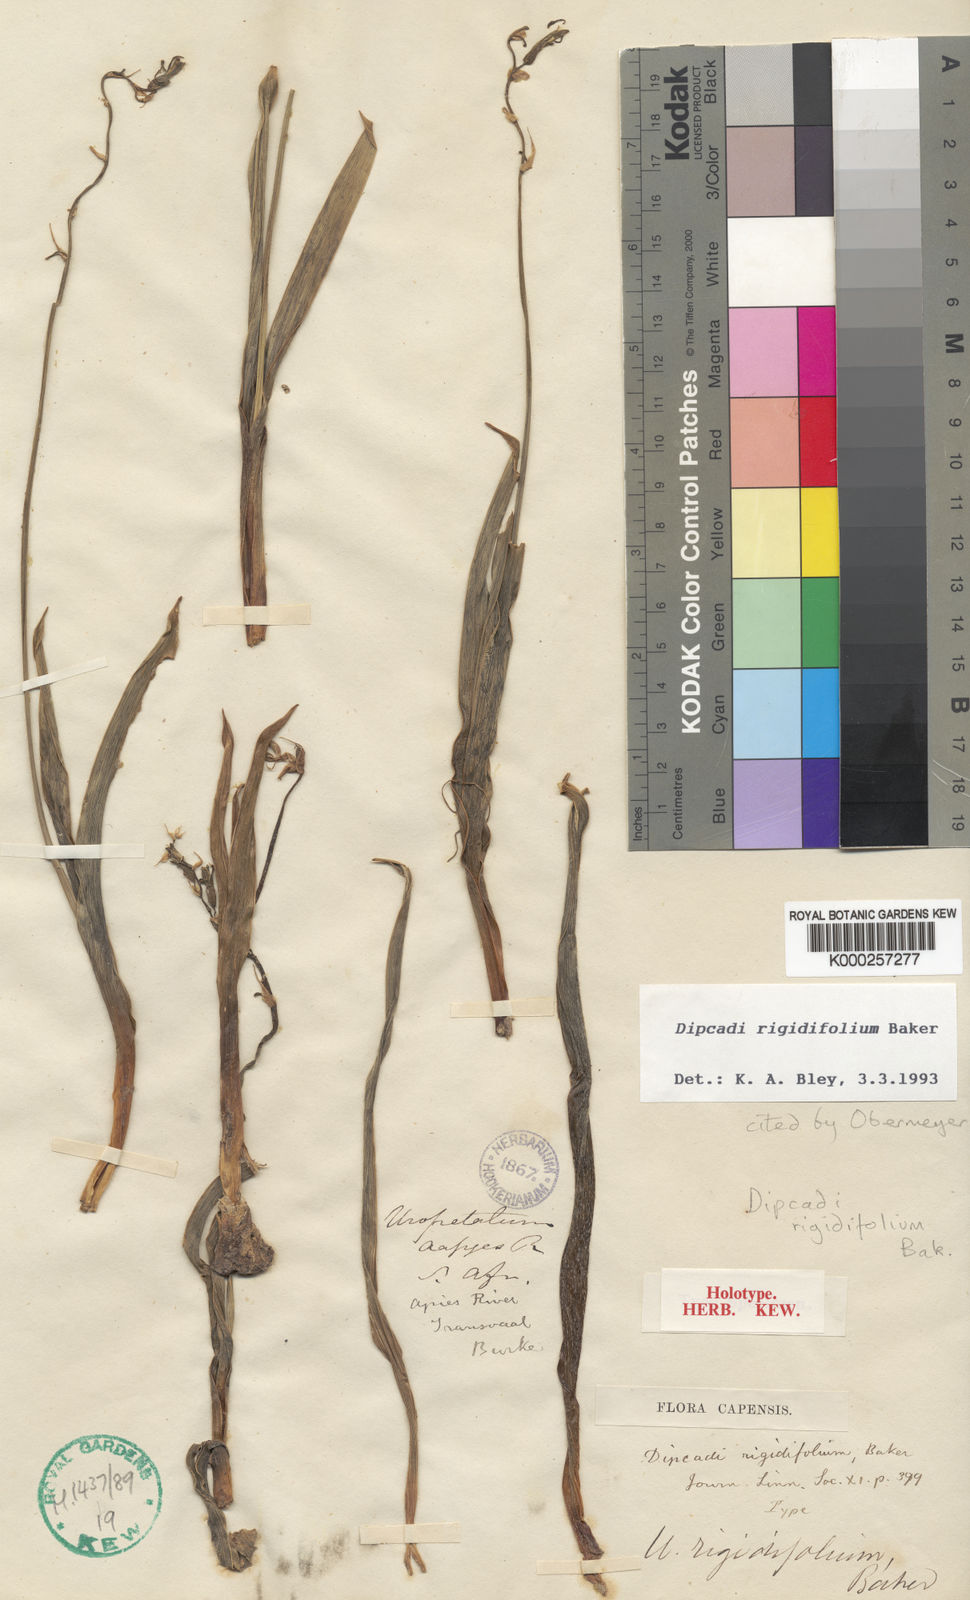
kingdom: Plantae
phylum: Tracheophyta
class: Liliopsida
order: Asparagales
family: Asparagaceae
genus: Dipcadi
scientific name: Dipcadi rigidifolium
